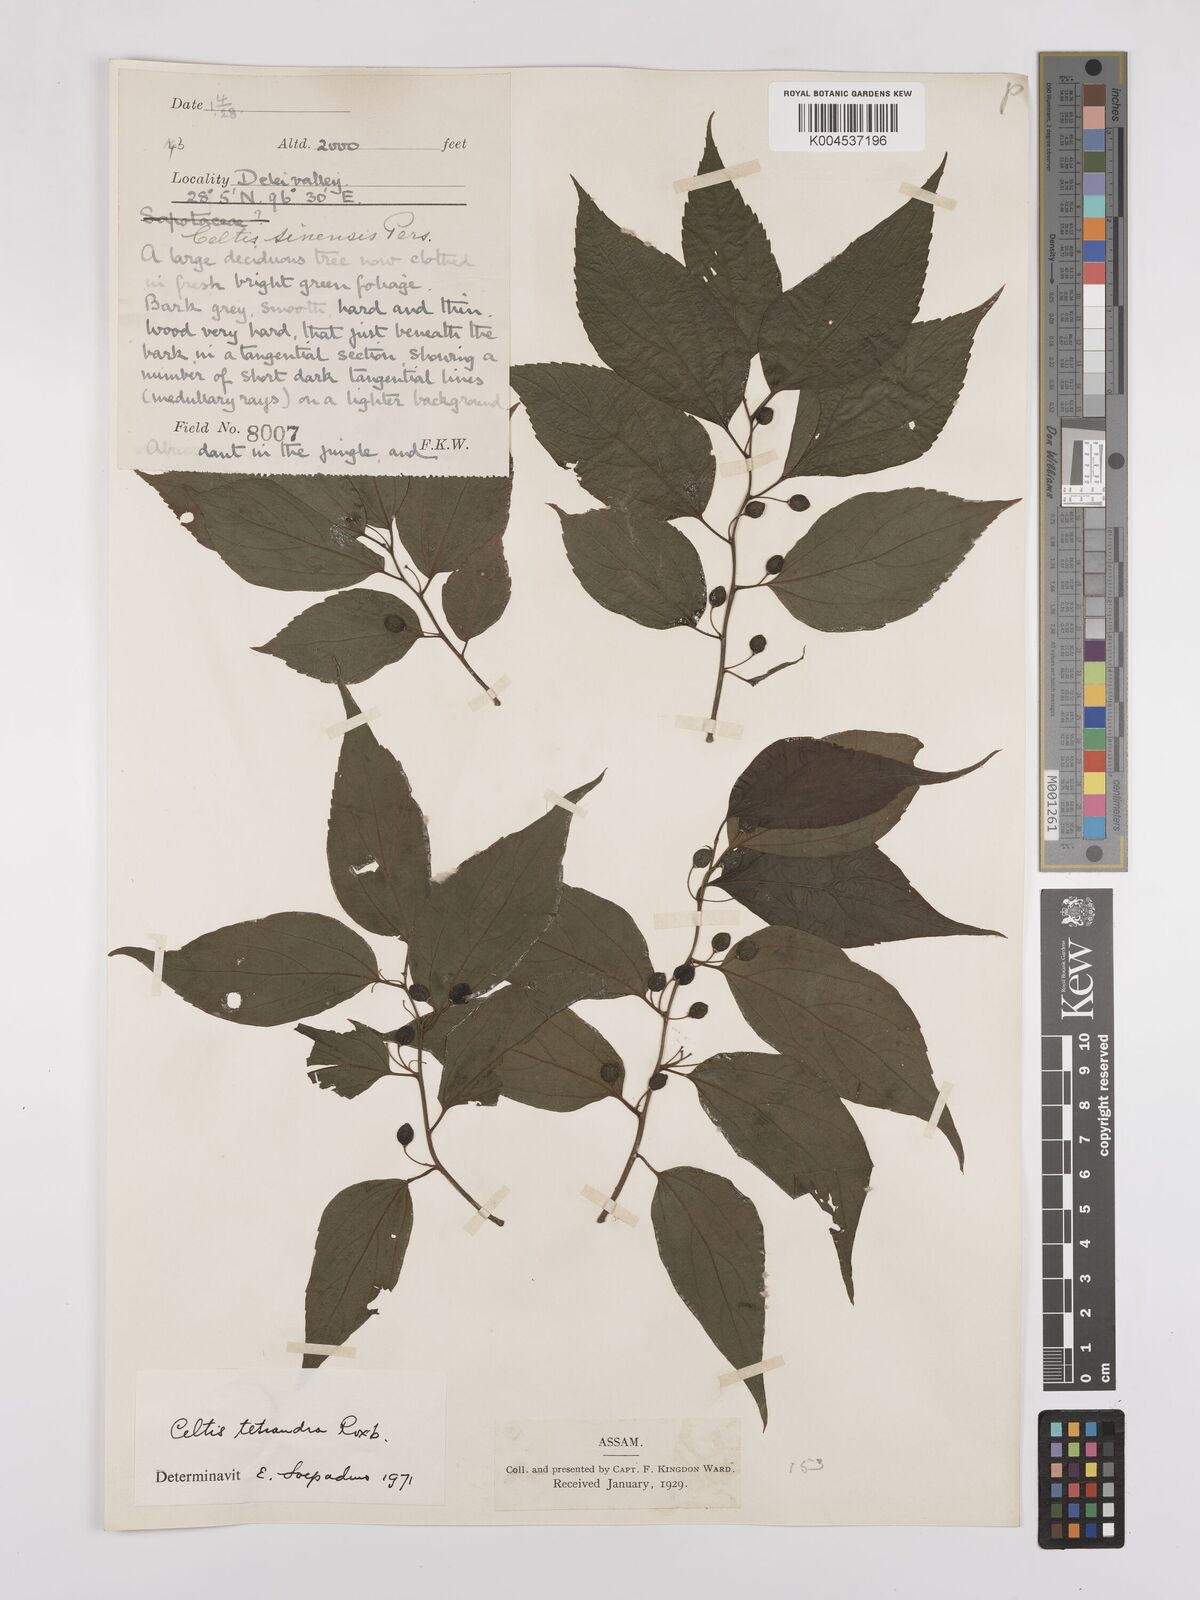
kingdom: Plantae
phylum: Tracheophyta
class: Magnoliopsida
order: Rosales
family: Cannabaceae
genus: Celtis
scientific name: Celtis tetrandra
